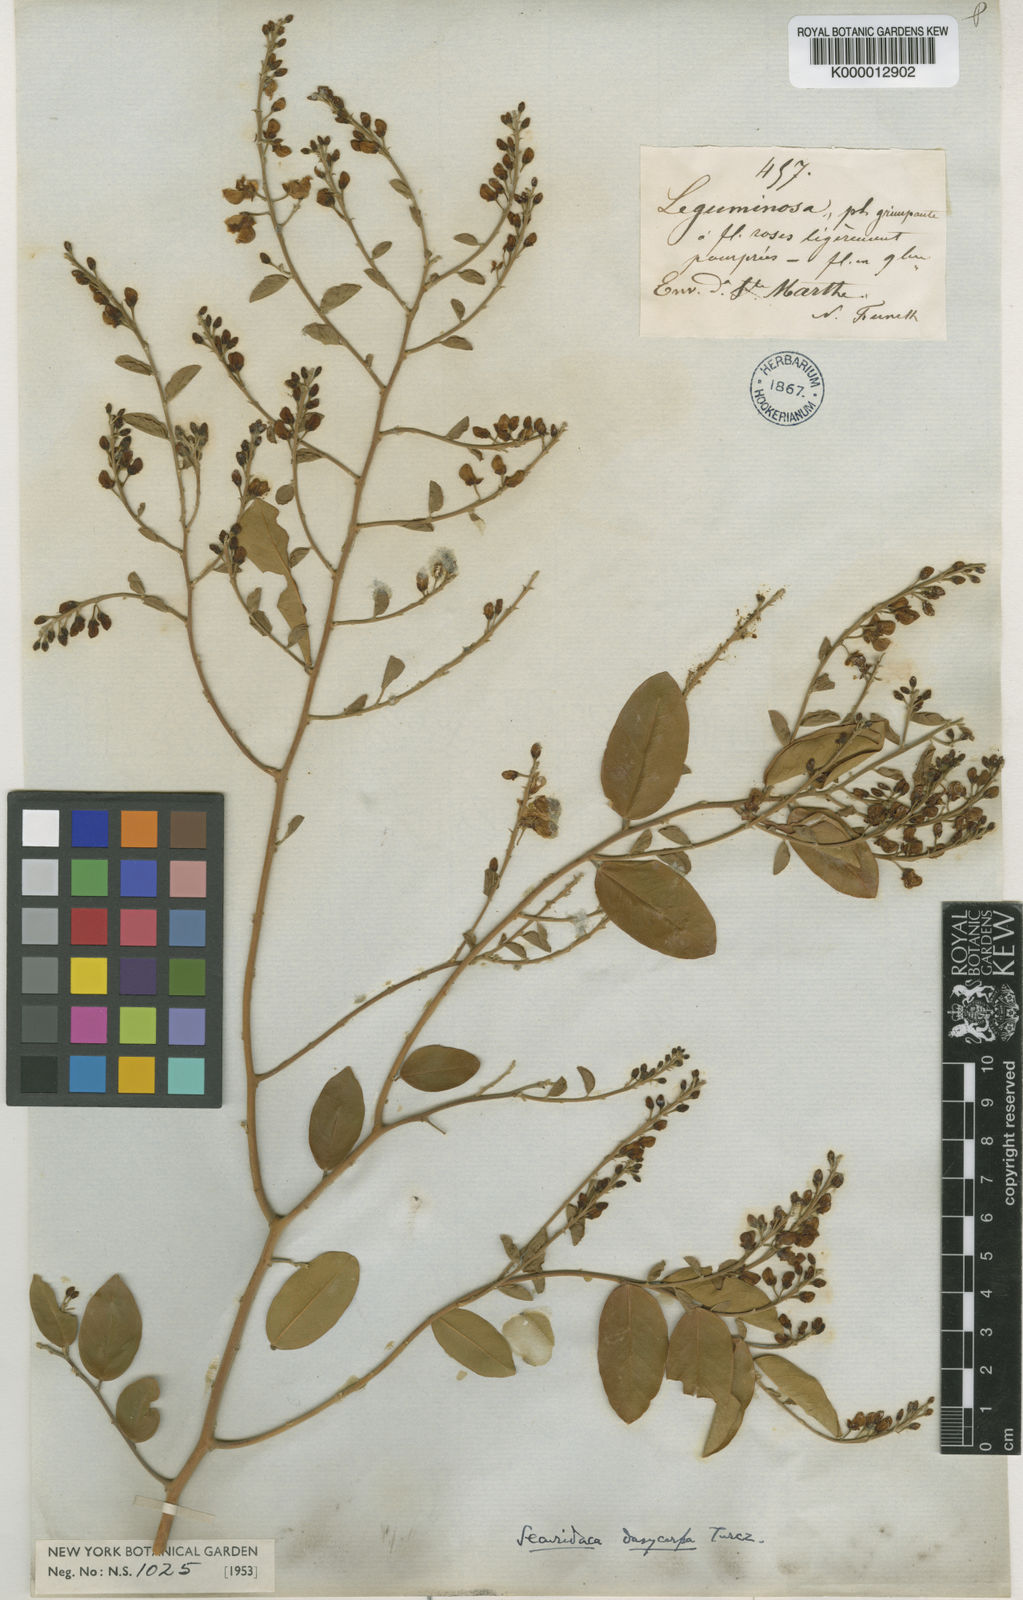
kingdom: Plantae
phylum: Tracheophyta
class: Magnoliopsida
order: Fabales
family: Polygalaceae
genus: Securidaca
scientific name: Securidaca dasycarpa
